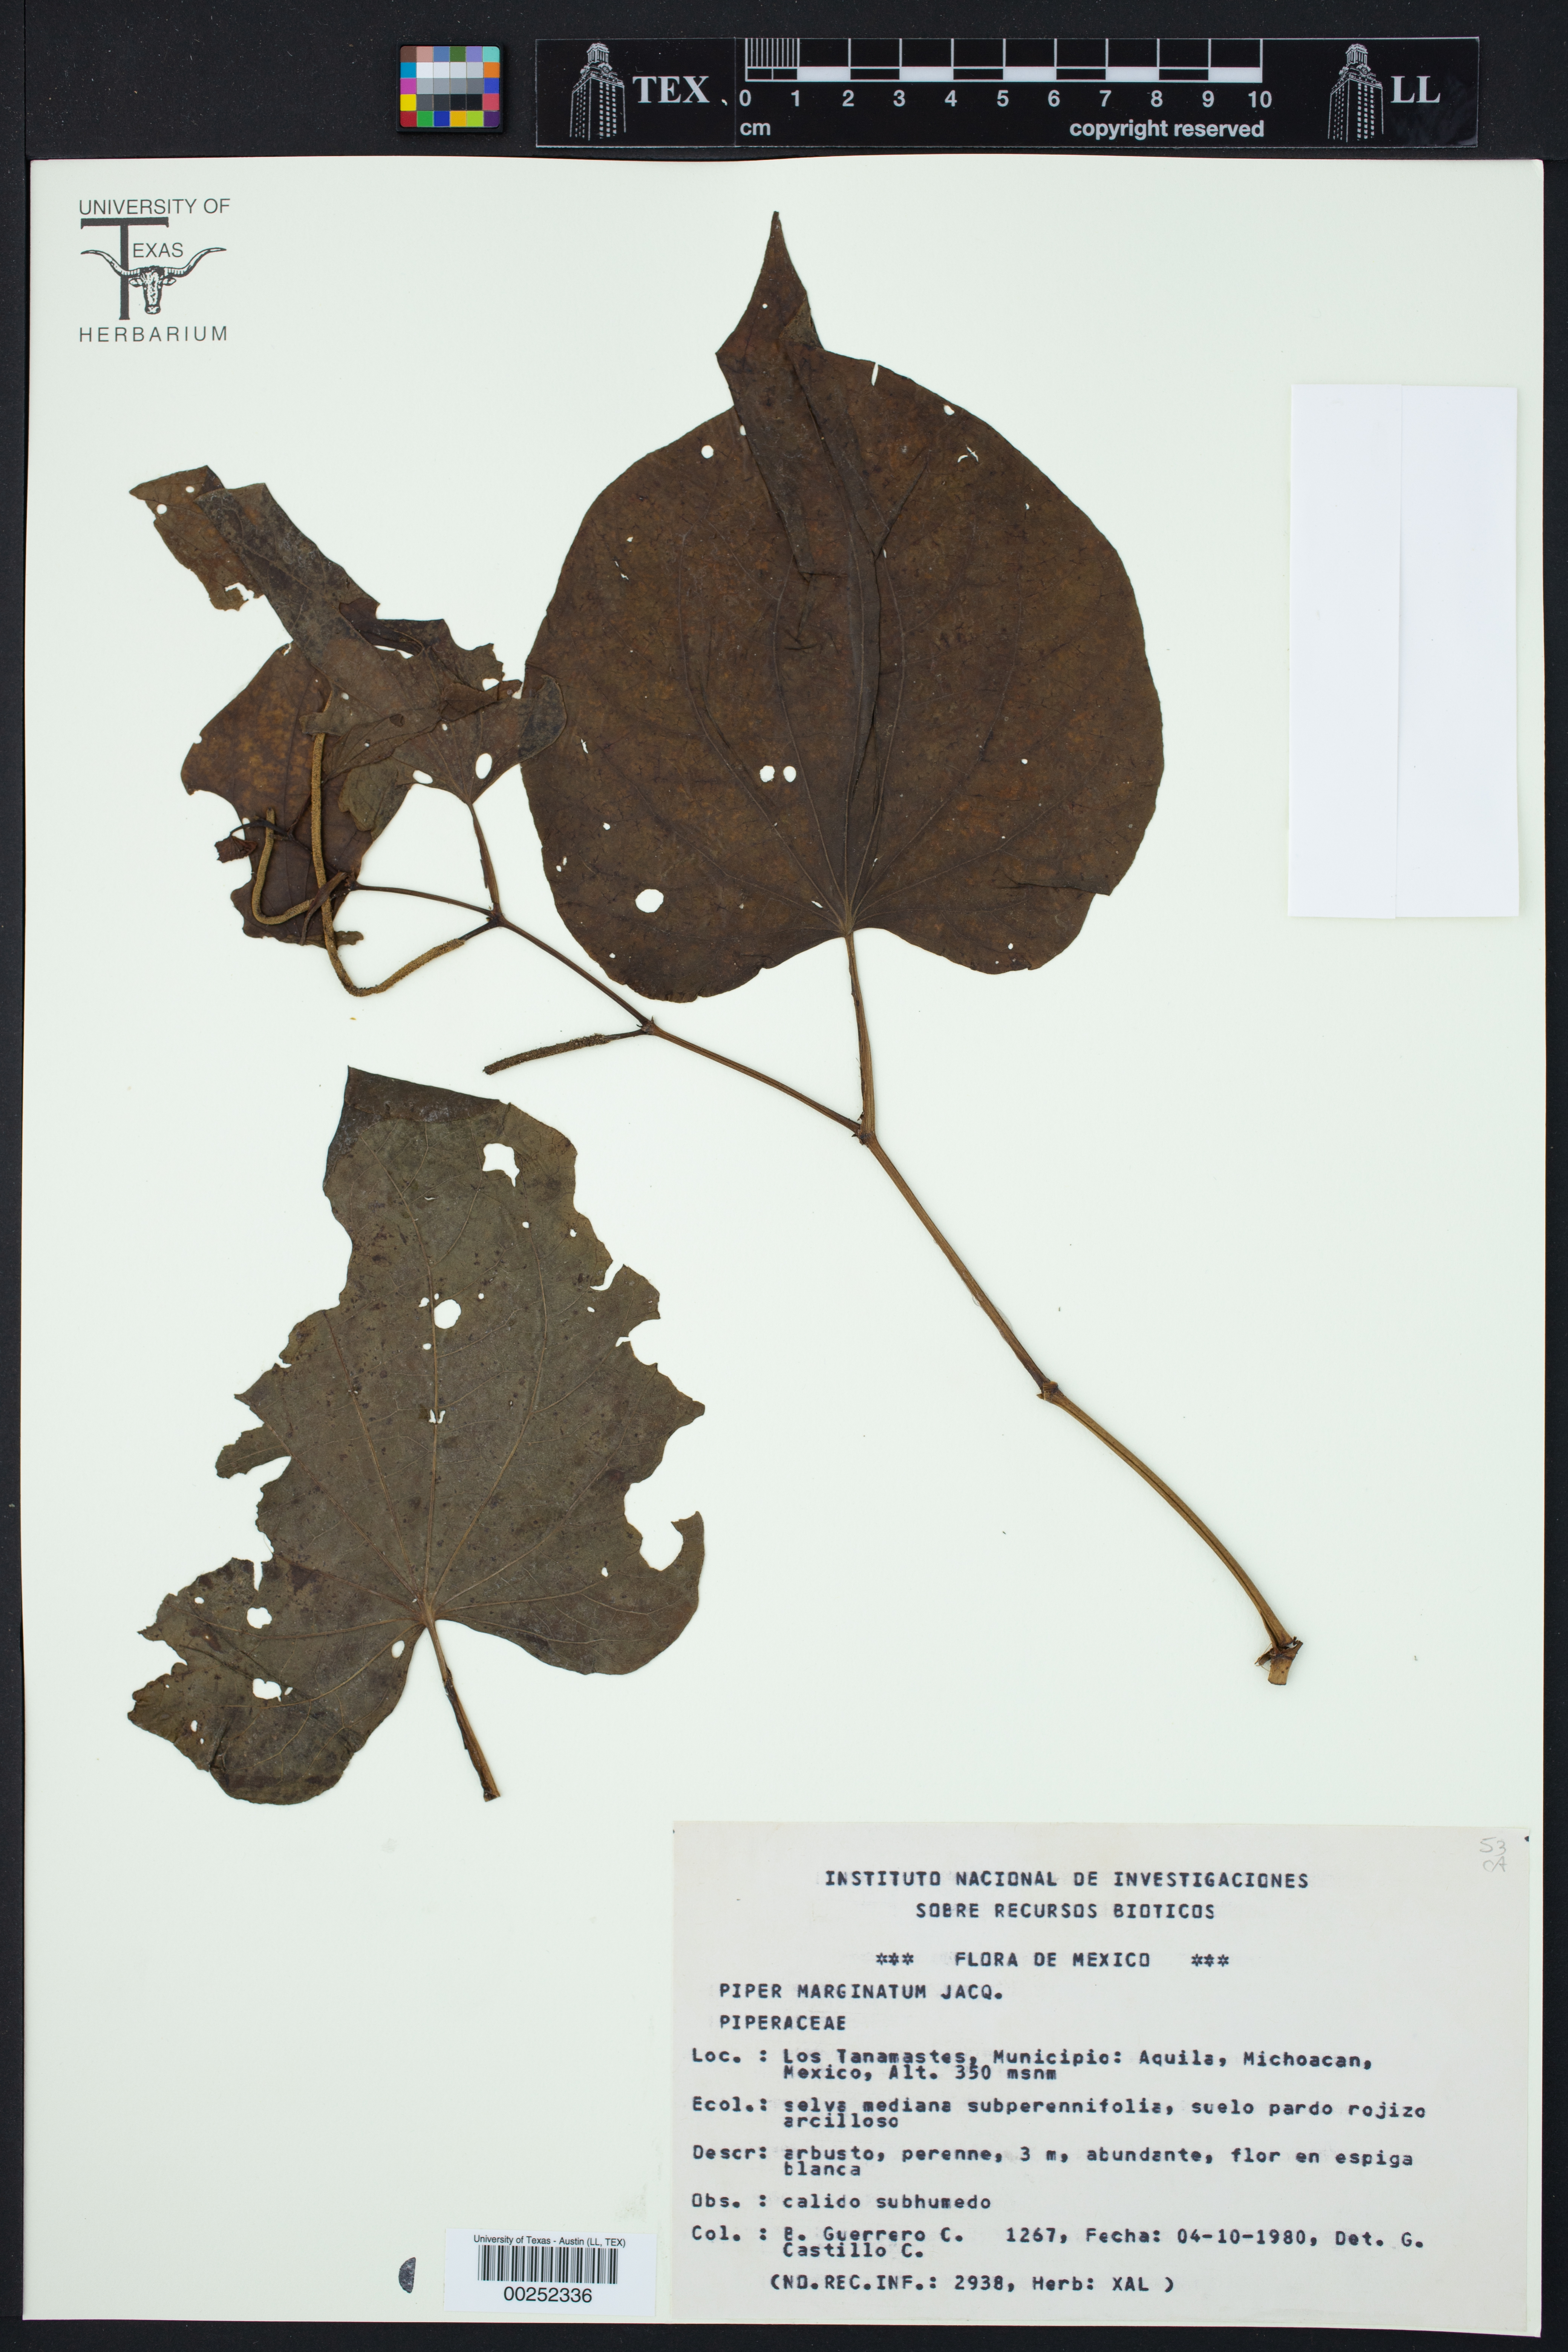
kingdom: Plantae
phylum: Tracheophyta
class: Magnoliopsida
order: Piperales
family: Piperaceae
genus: Piper
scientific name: Piper marginatum
